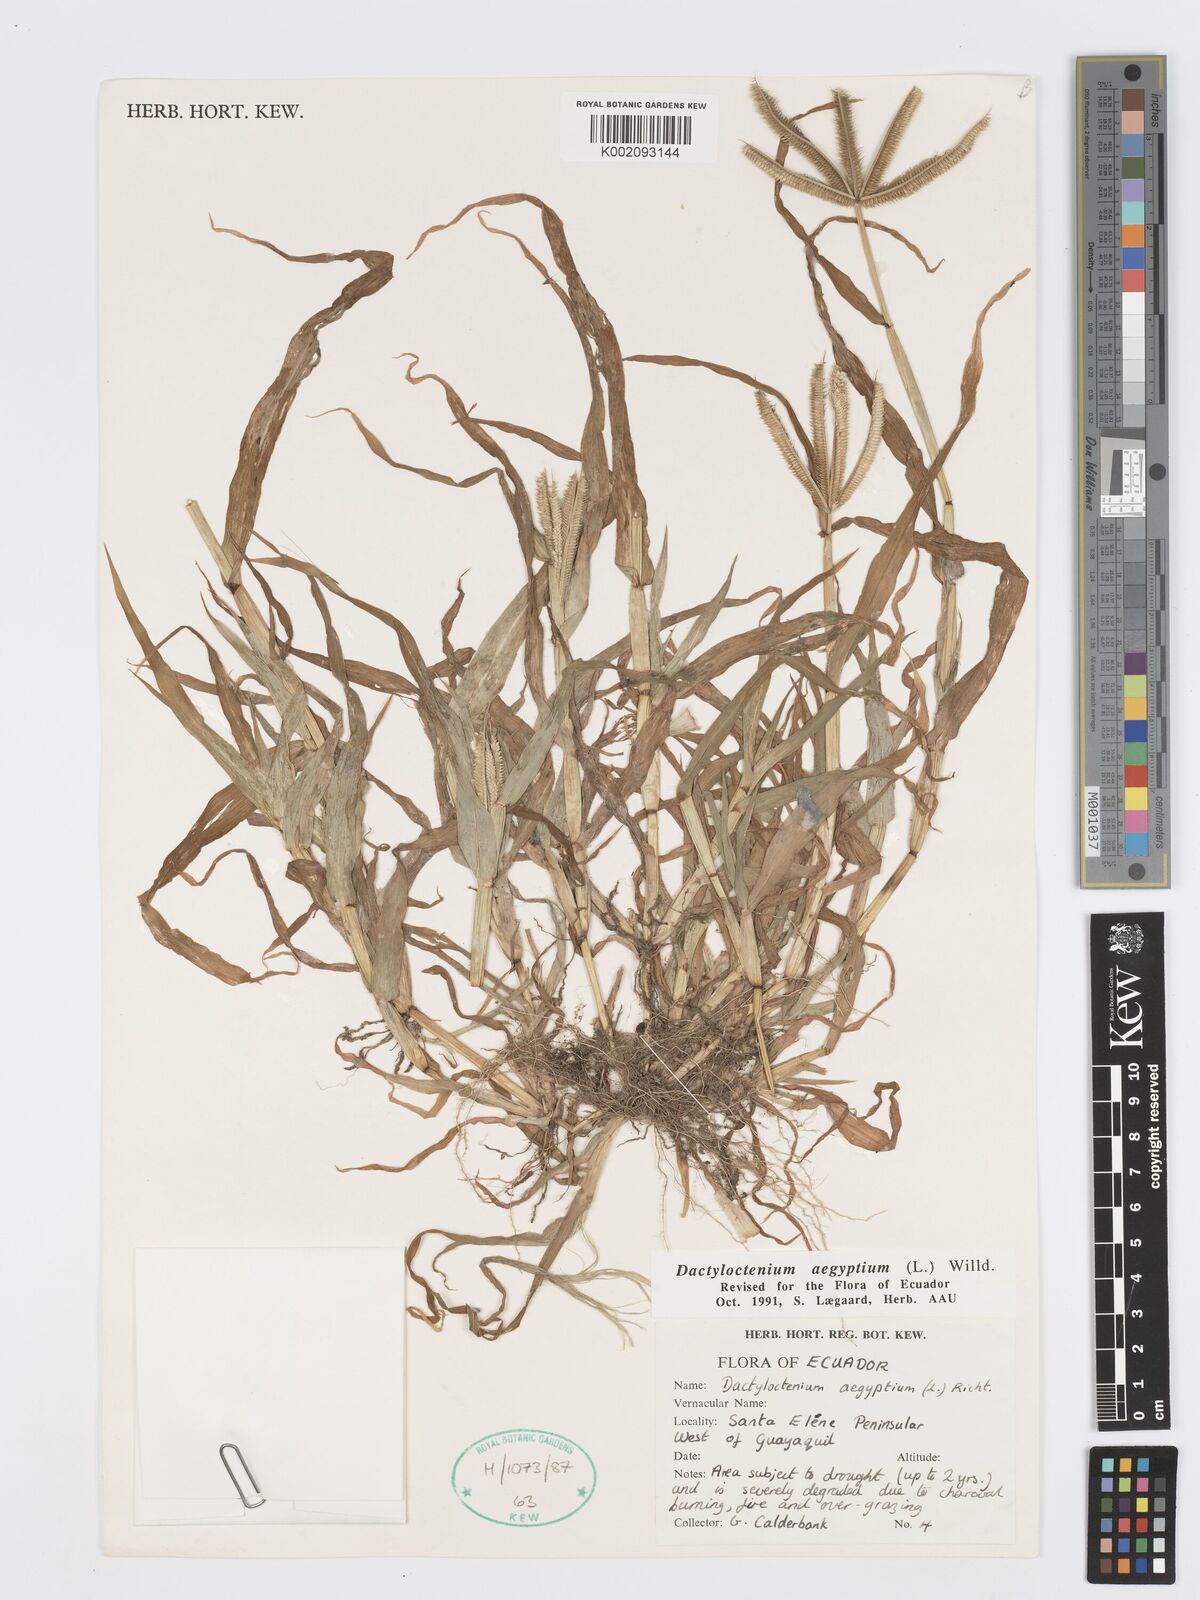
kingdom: Plantae
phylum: Tracheophyta
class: Liliopsida
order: Poales
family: Poaceae
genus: Dactyloctenium
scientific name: Dactyloctenium aegyptium
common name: Egyptian grass
